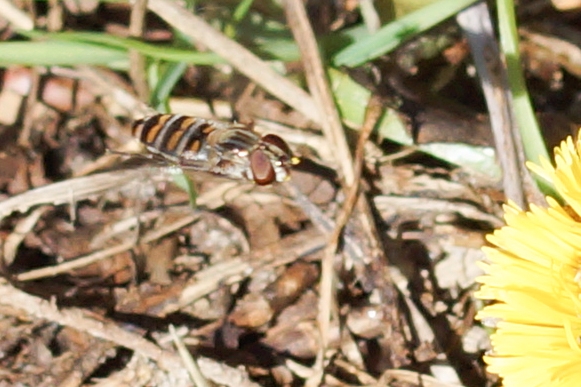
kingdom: Animalia
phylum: Arthropoda
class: Insecta
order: Diptera
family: Syrphidae
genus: Episyrphus
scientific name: Episyrphus balteatus
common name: Dobbeltbåndet svirreflue
